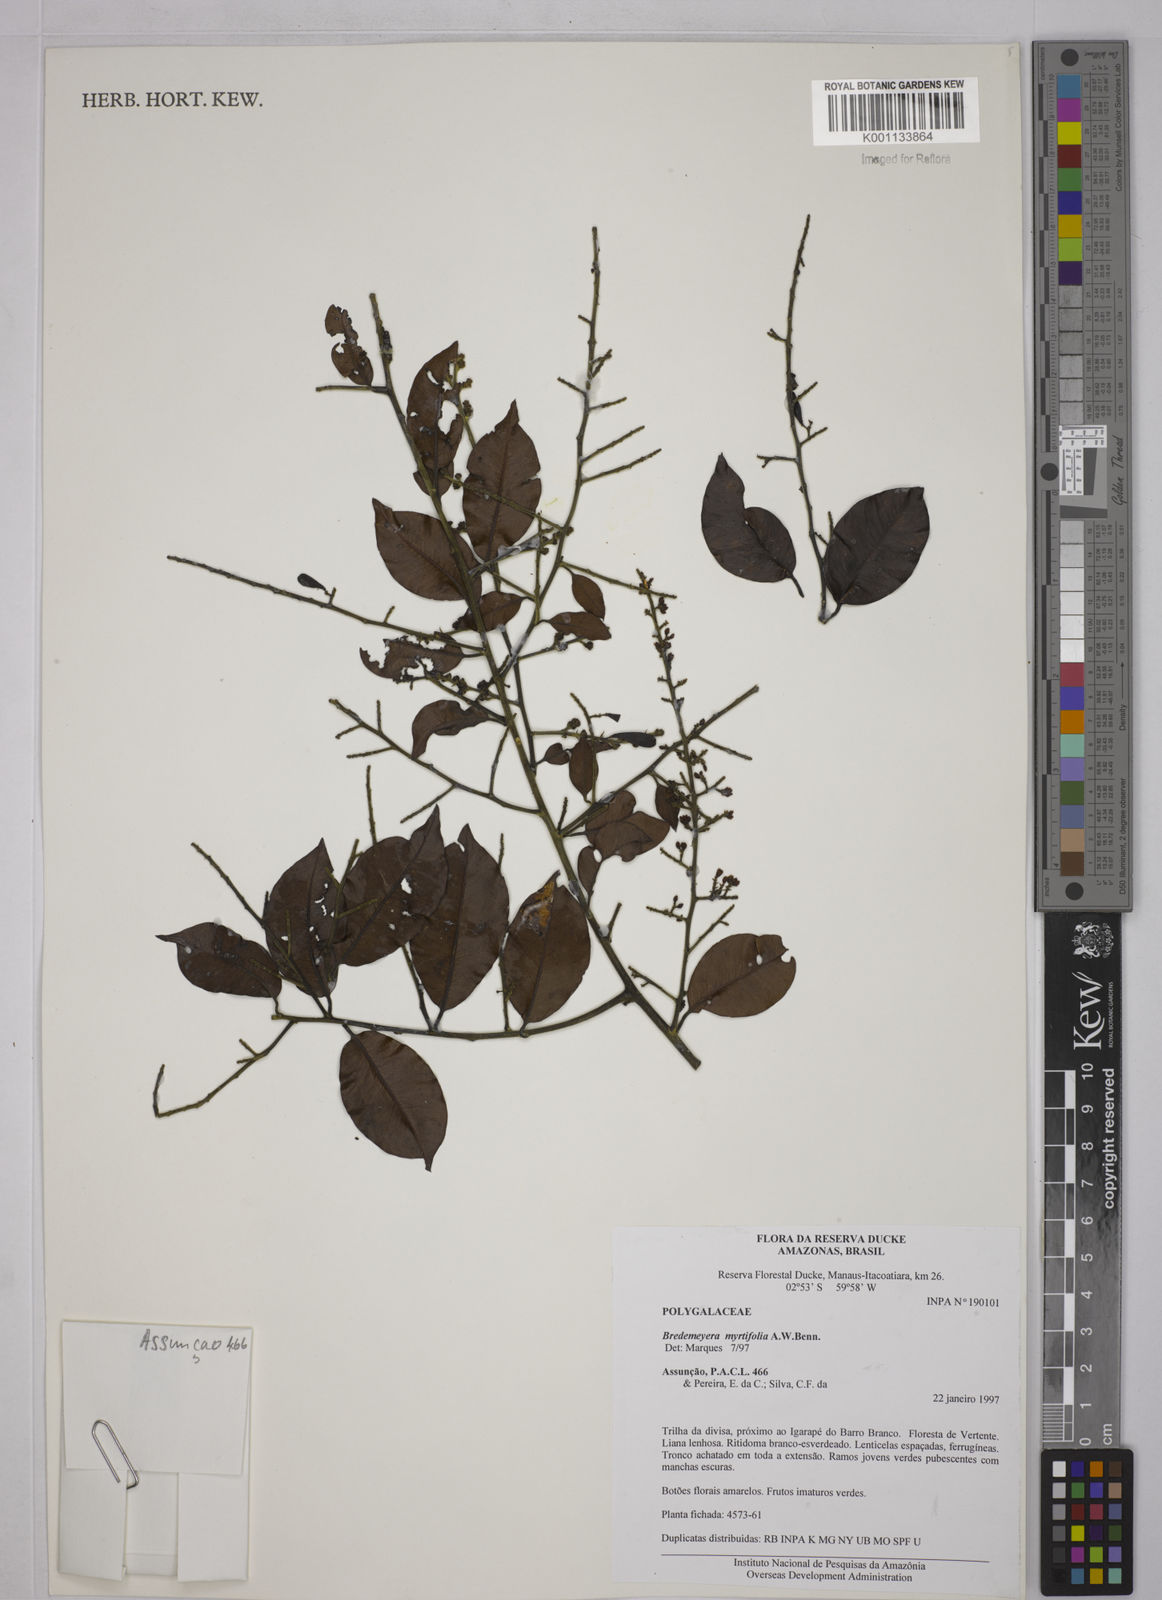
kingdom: Plantae
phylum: Tracheophyta
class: Magnoliopsida
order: Fabales
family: Polygalaceae
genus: Bredemeyera
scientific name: Bredemeyera
